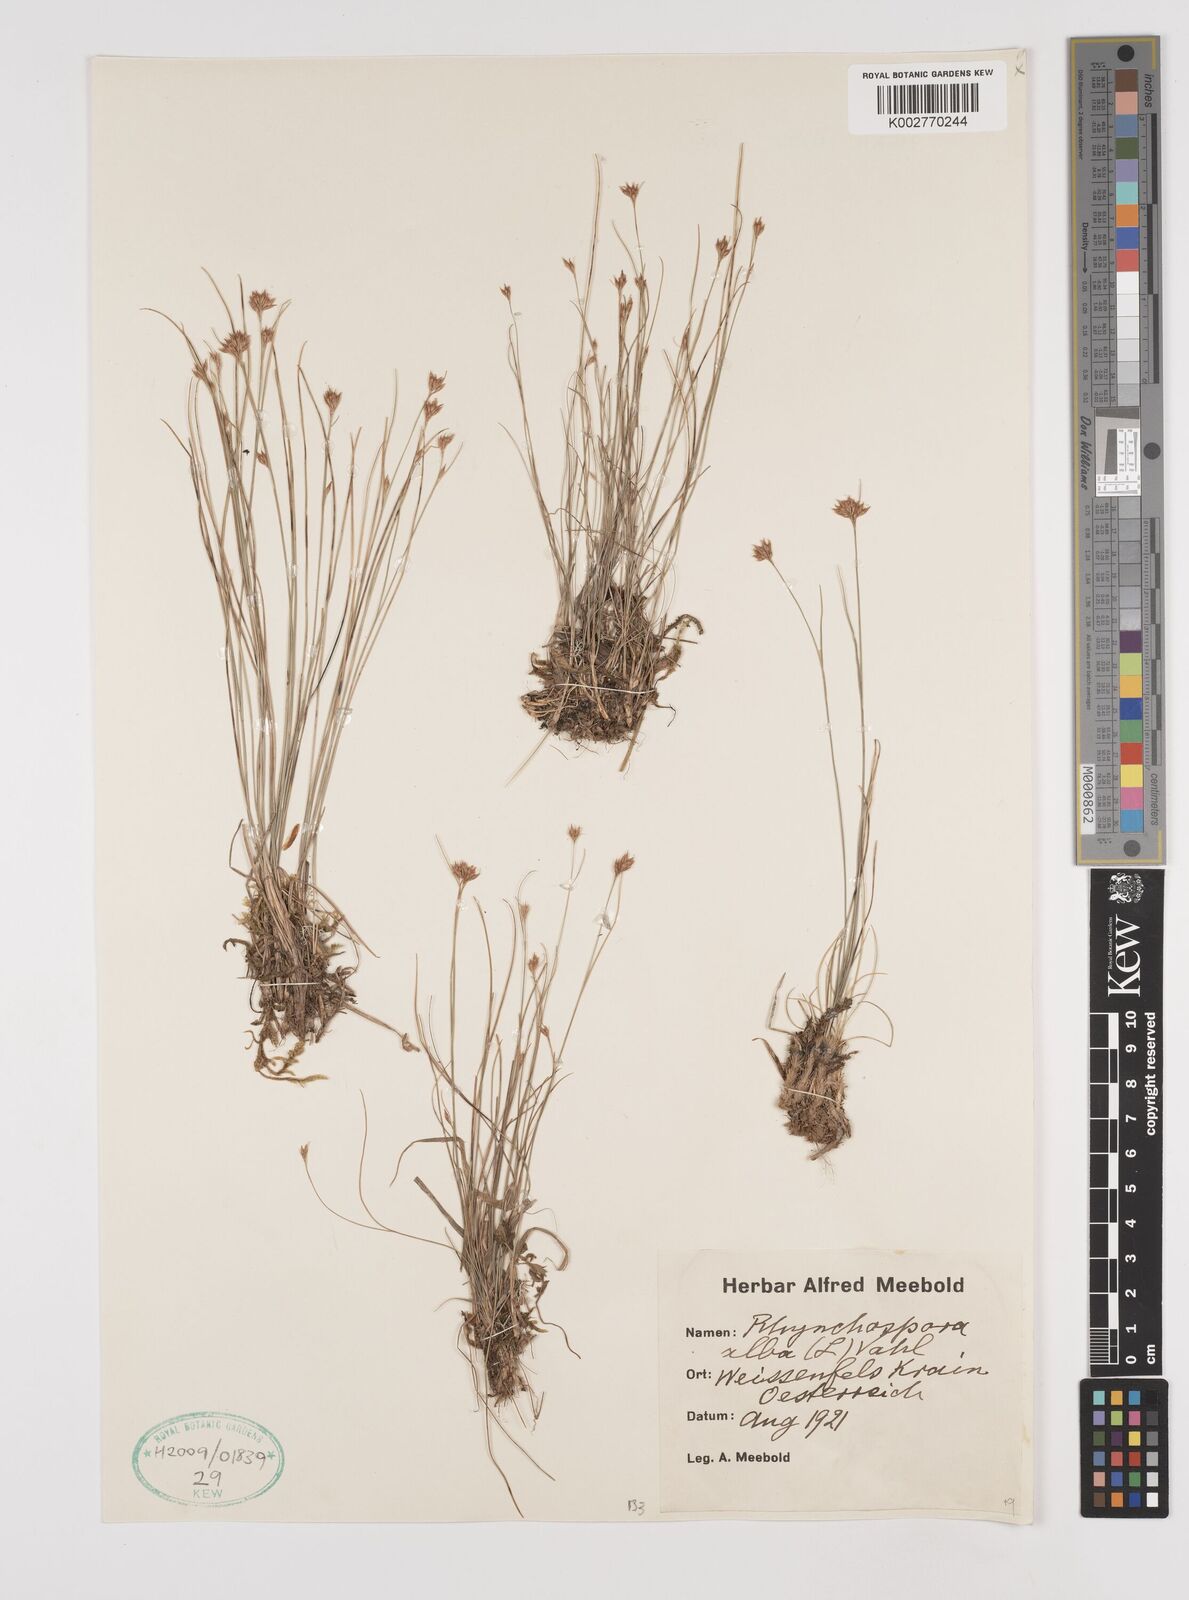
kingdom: Plantae
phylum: Tracheophyta
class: Liliopsida
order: Poales
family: Cyperaceae
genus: Rhynchospora
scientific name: Rhynchospora alba
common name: White beak-sedge
